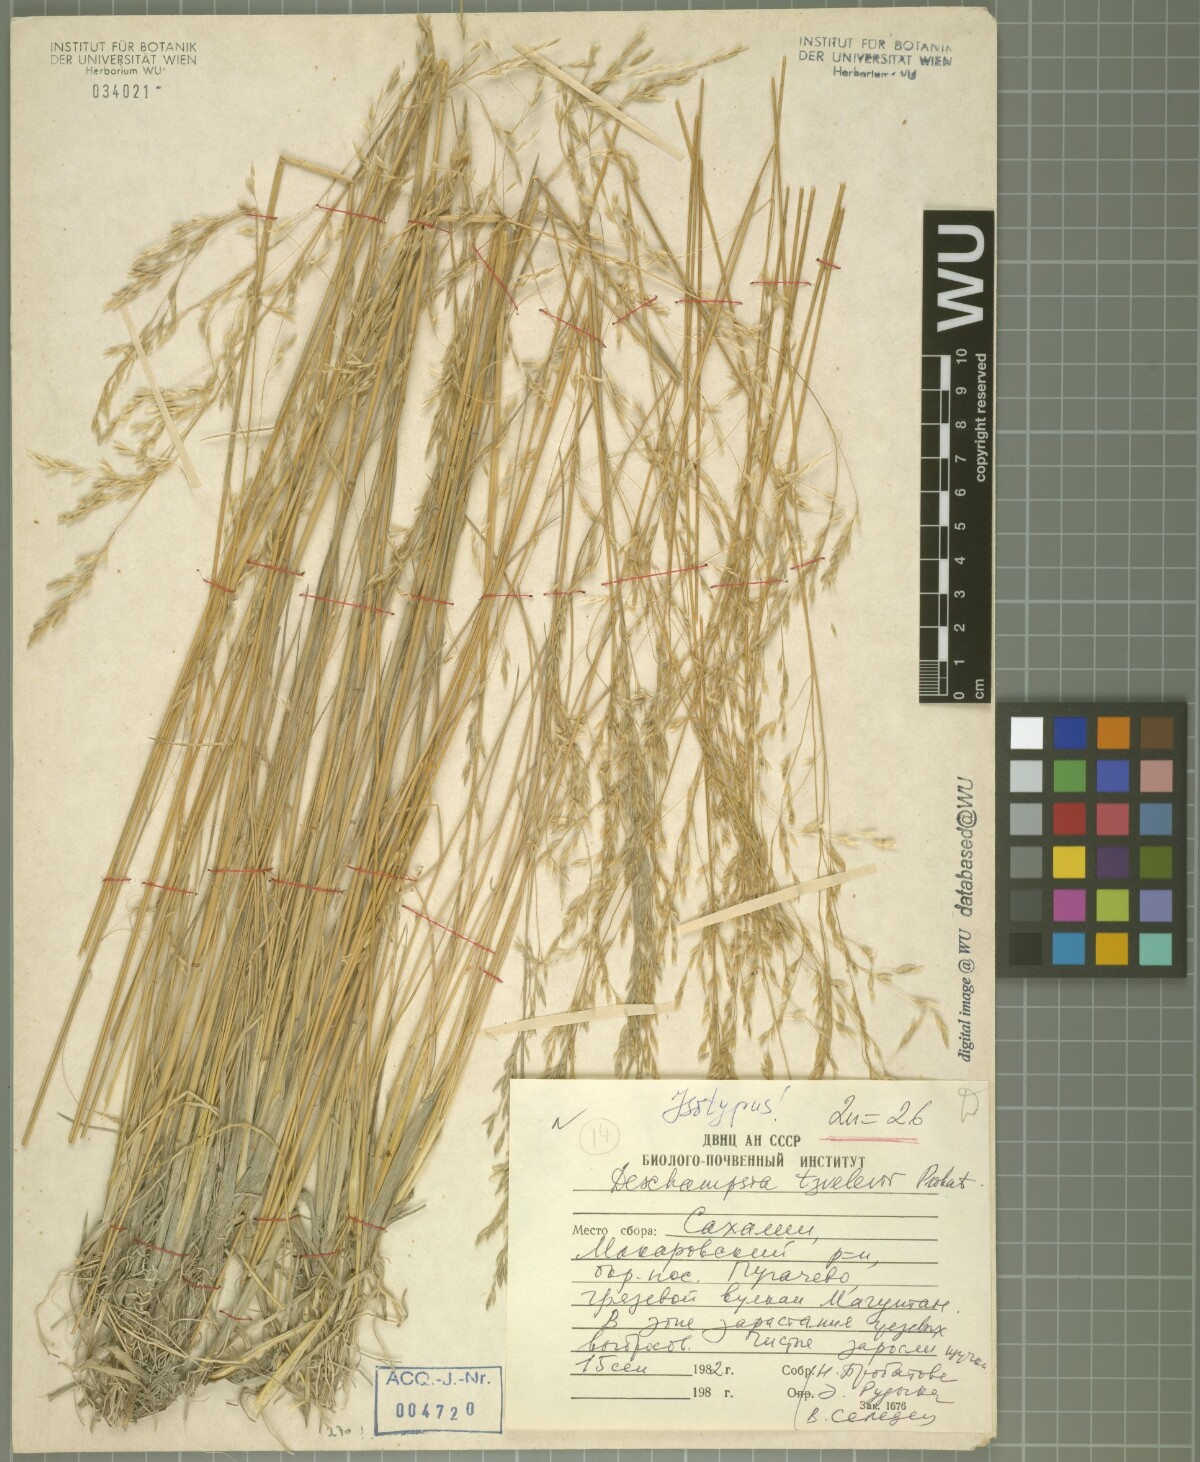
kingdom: Plantae
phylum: Tracheophyta
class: Liliopsida
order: Poales
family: Poaceae
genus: Deschampsia
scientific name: Deschampsia cespitosa
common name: Tufted hair-grass
